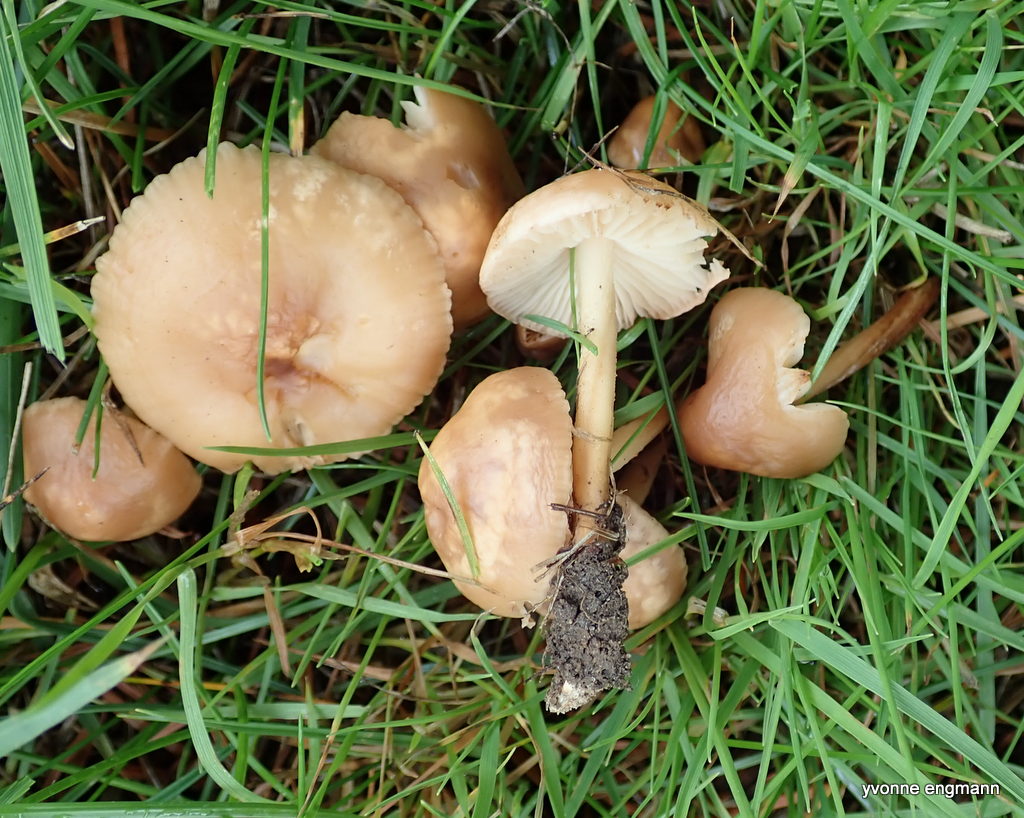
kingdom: Fungi
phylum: Basidiomycota
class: Agaricomycetes
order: Agaricales
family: Marasmiaceae
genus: Marasmius
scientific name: Marasmius oreades
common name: elledans-bruskhat
